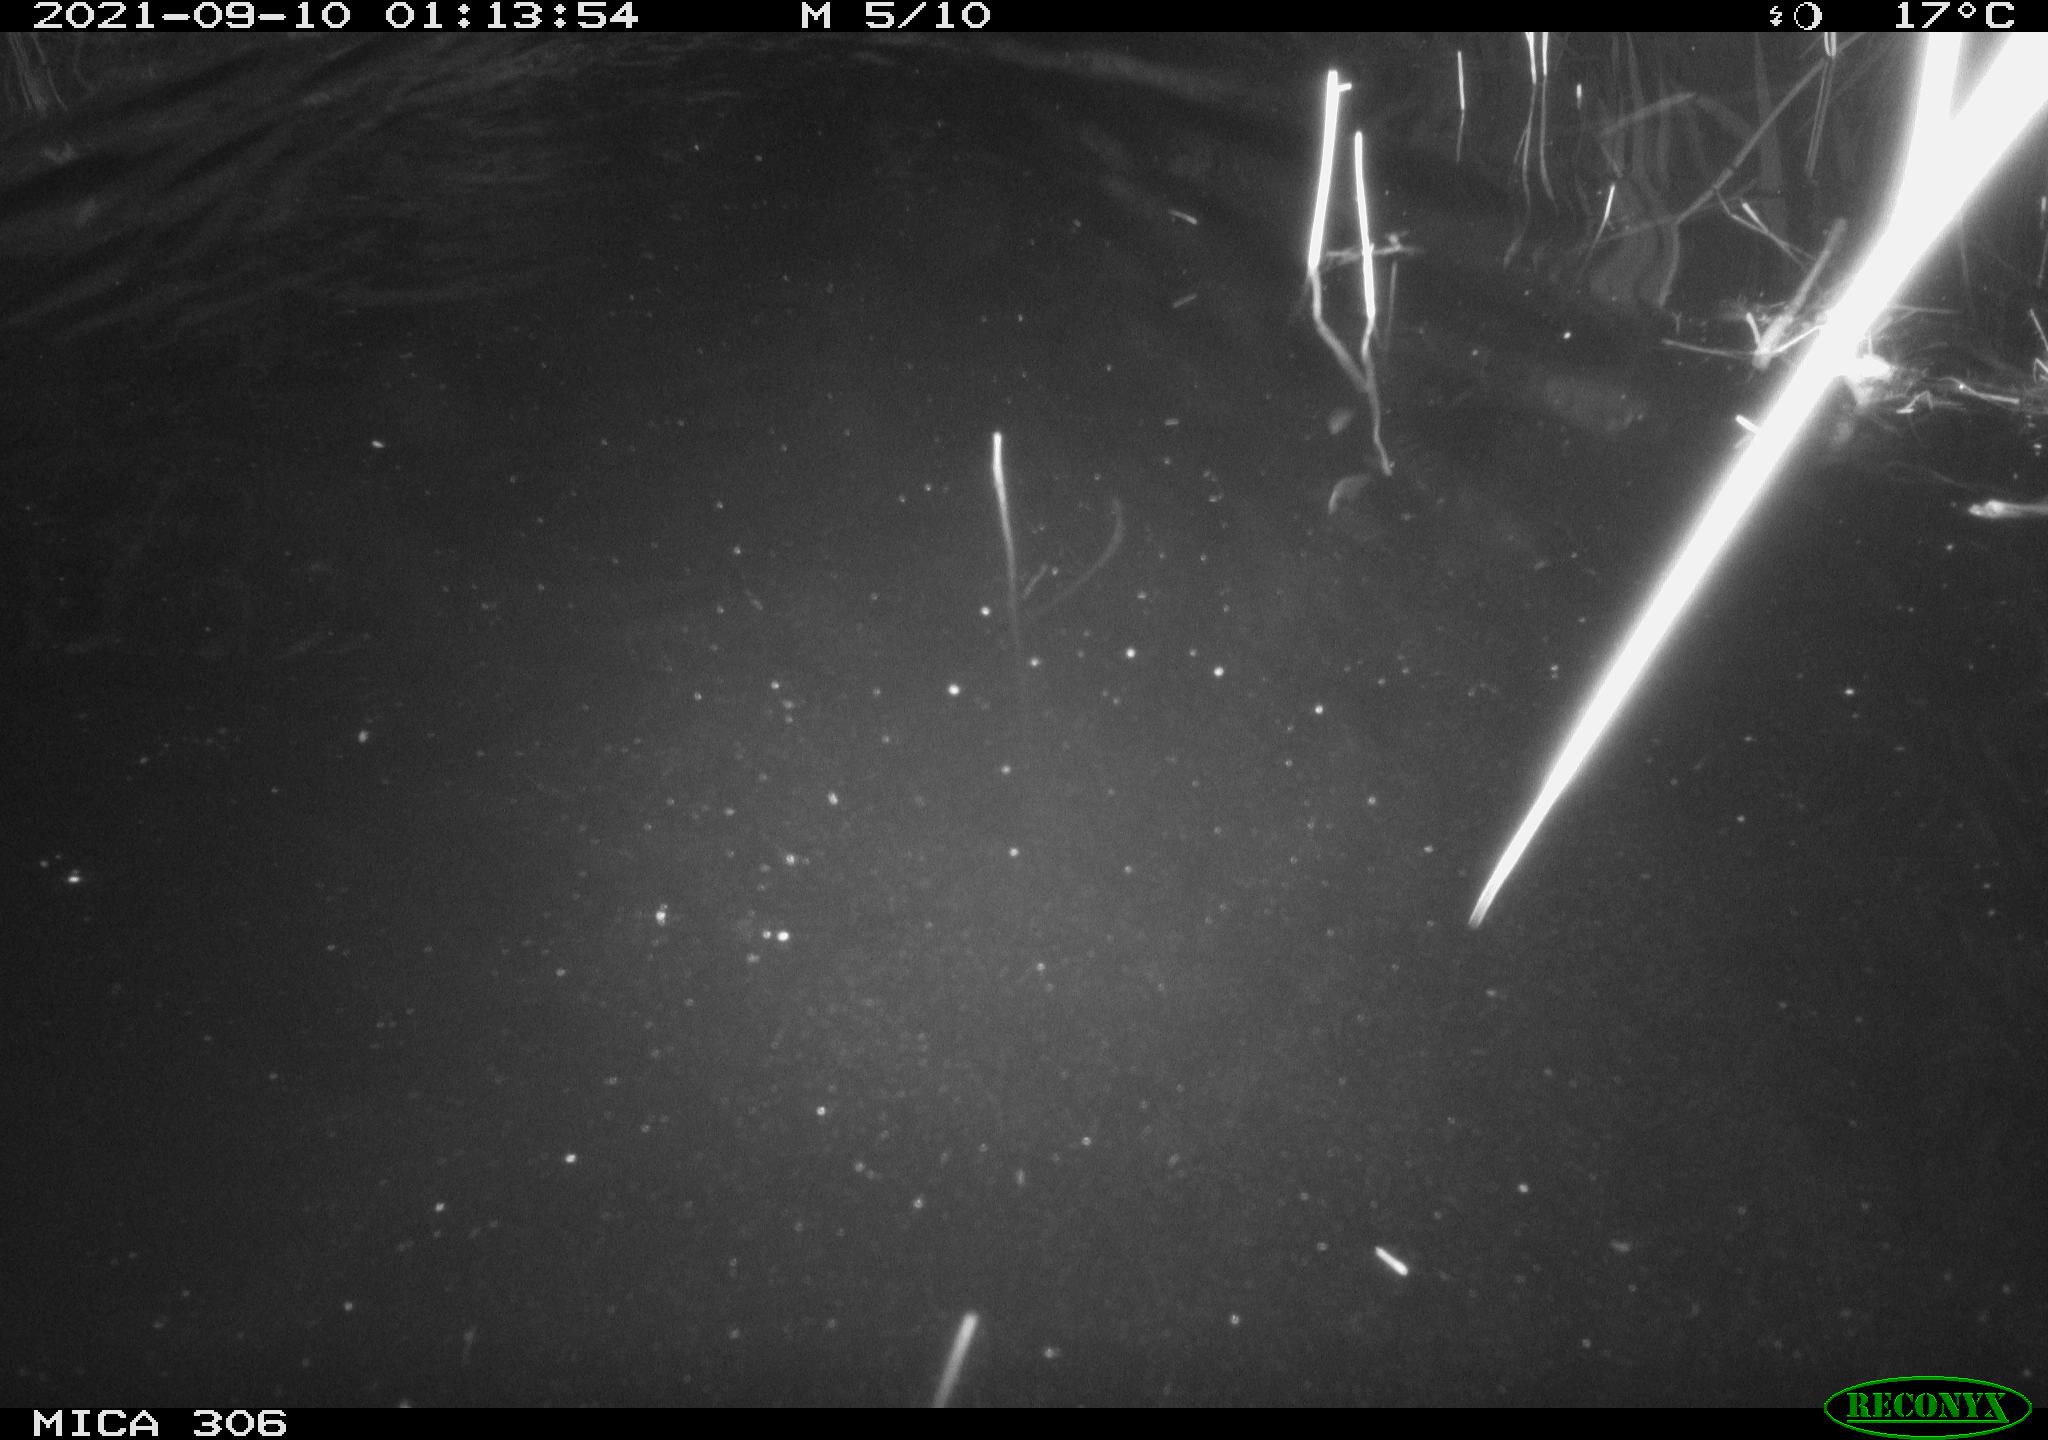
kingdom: Animalia
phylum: Chordata
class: Mammalia
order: Rodentia
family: Cricetidae
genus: Ondatra
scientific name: Ondatra zibethicus
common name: Muskrat
